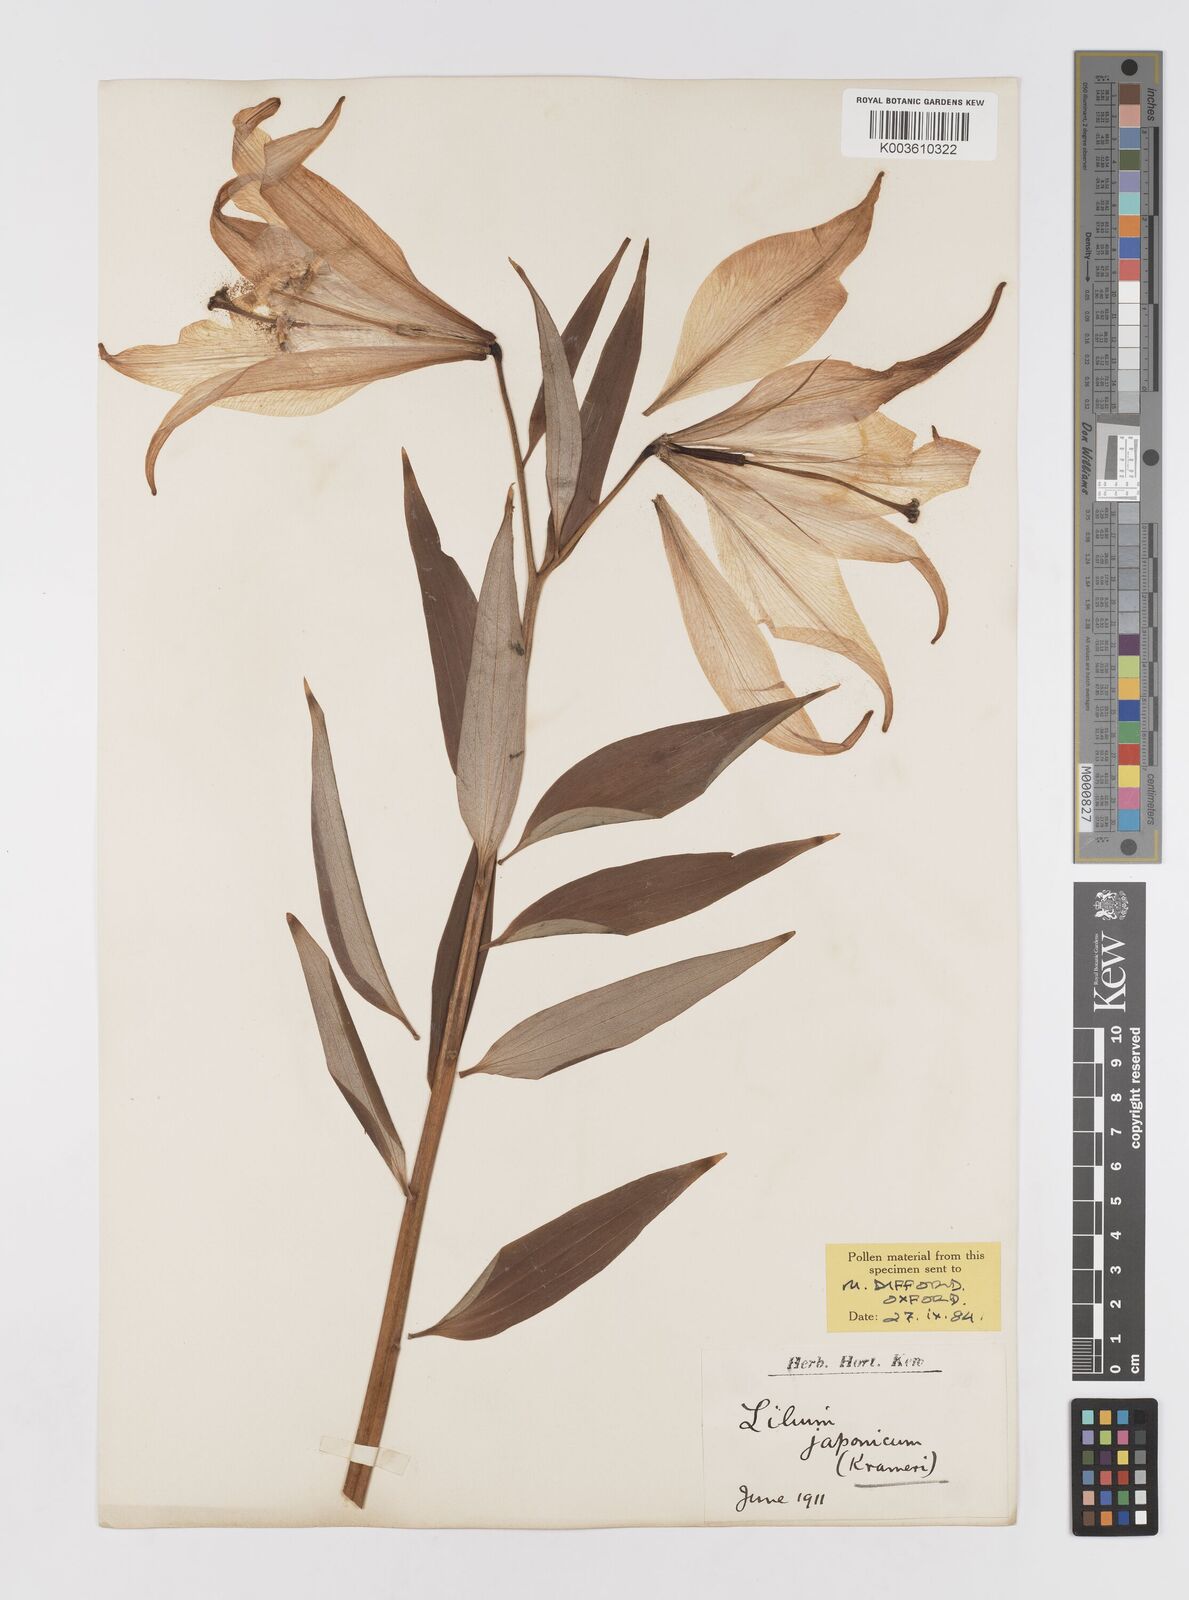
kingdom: Plantae
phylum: Tracheophyta
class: Liliopsida
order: Liliales
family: Liliaceae
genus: Lilium
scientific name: Lilium japonicum
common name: Japanese lily
